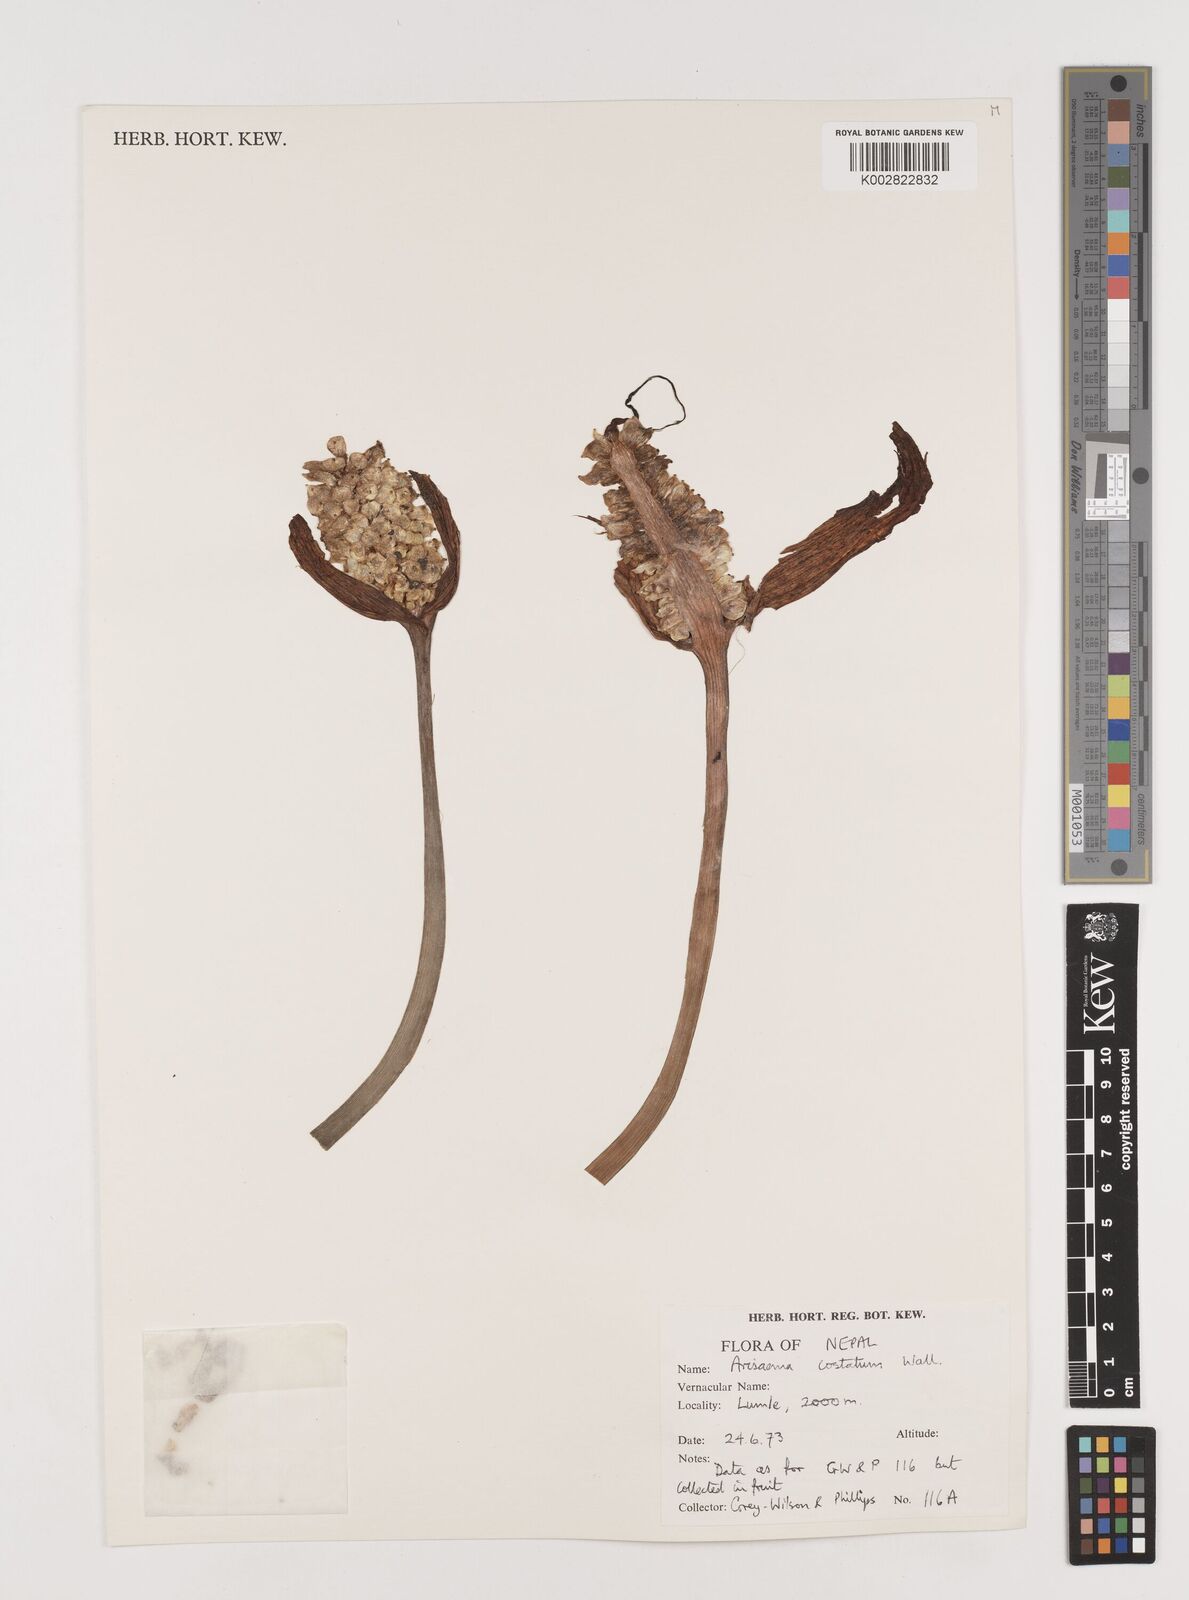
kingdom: Plantae
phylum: Tracheophyta
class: Liliopsida
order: Alismatales
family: Araceae
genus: Arisaema
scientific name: Arisaema costatum
